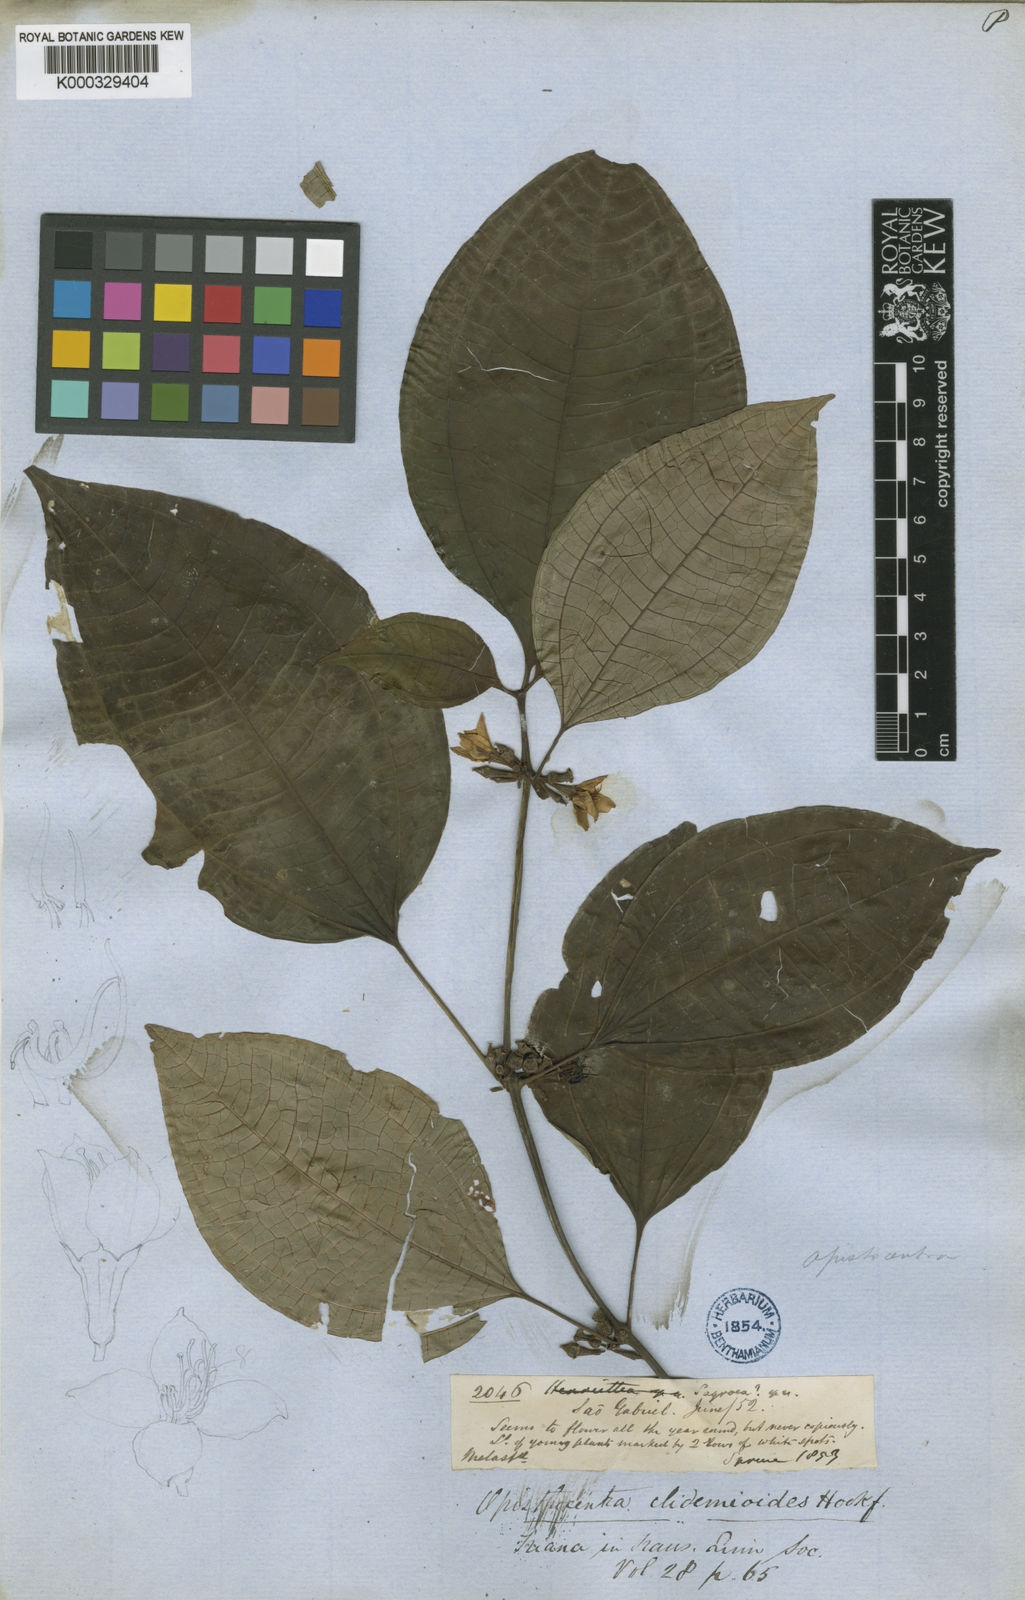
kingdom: Plantae
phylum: Tracheophyta
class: Magnoliopsida
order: Myrtales
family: Melastomataceae
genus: Opisthocentra
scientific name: Opisthocentra clidemioides
